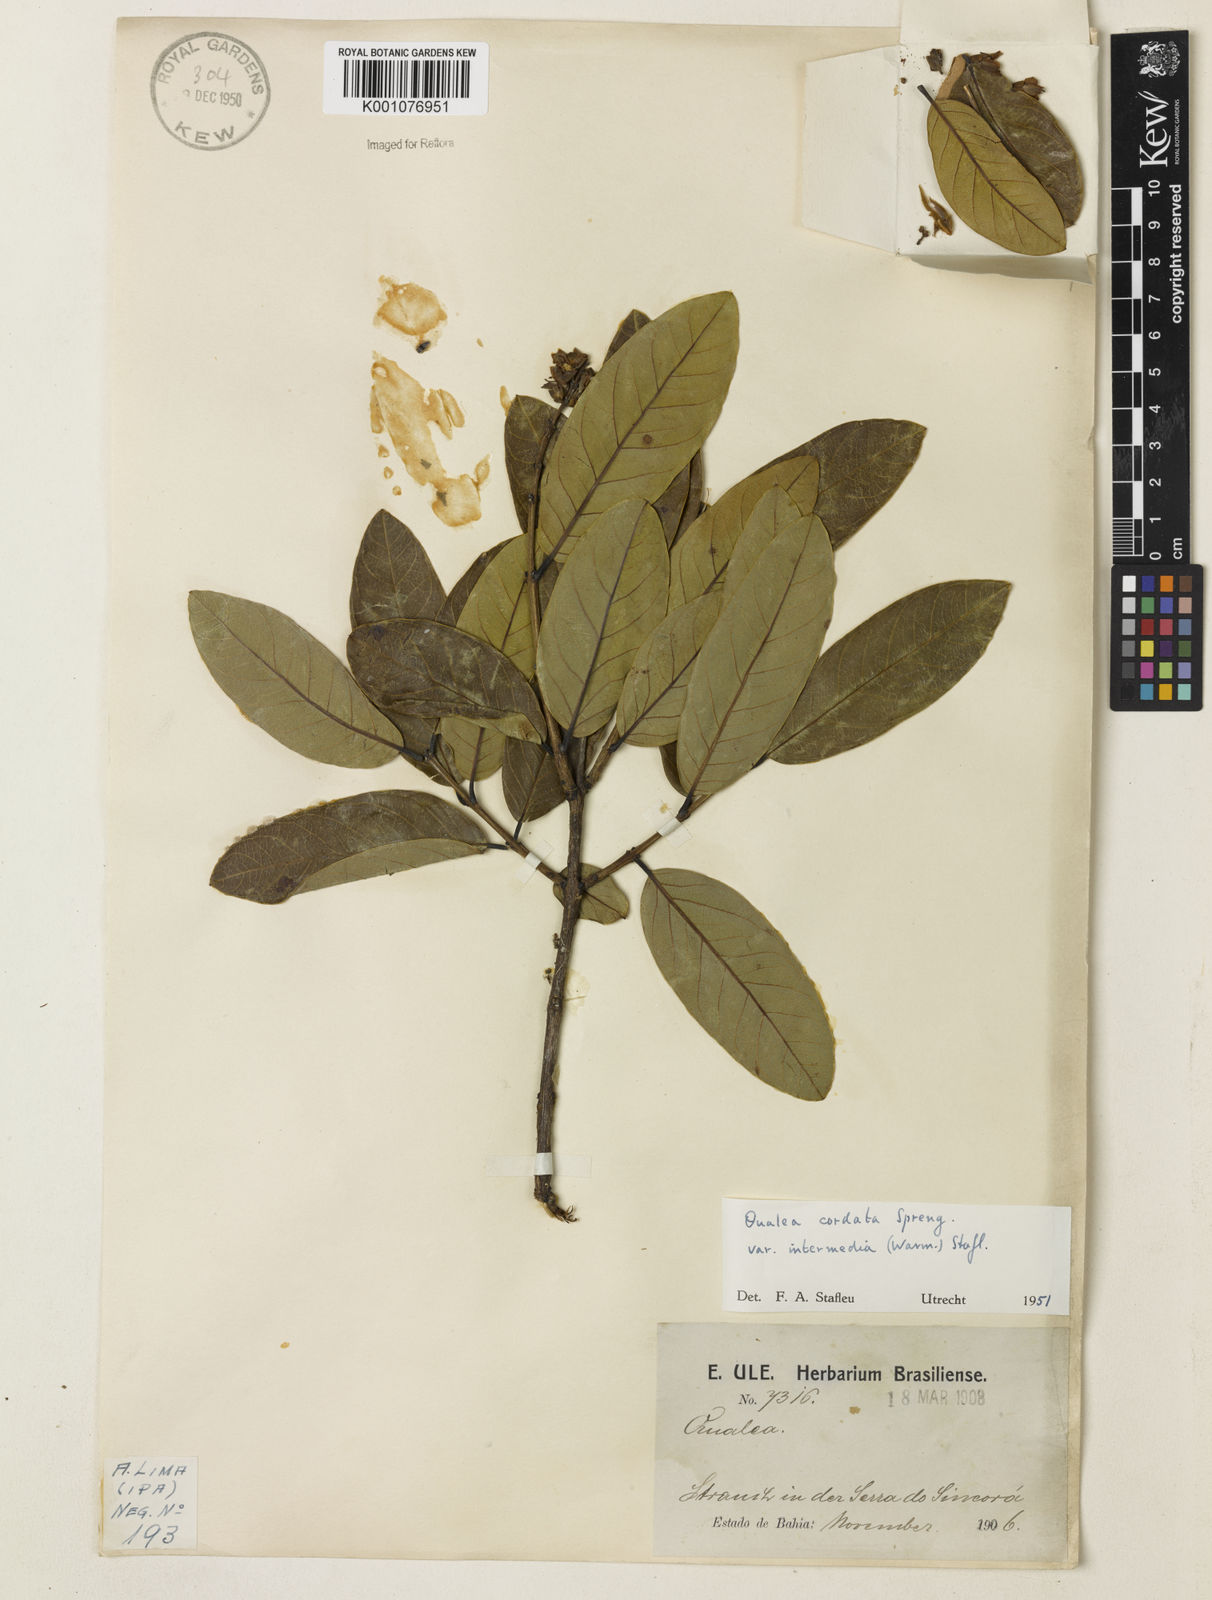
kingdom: Plantae
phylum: Tracheophyta
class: Magnoliopsida
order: Myrtales
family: Vochysiaceae
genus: Qualea
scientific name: Qualea cordata
